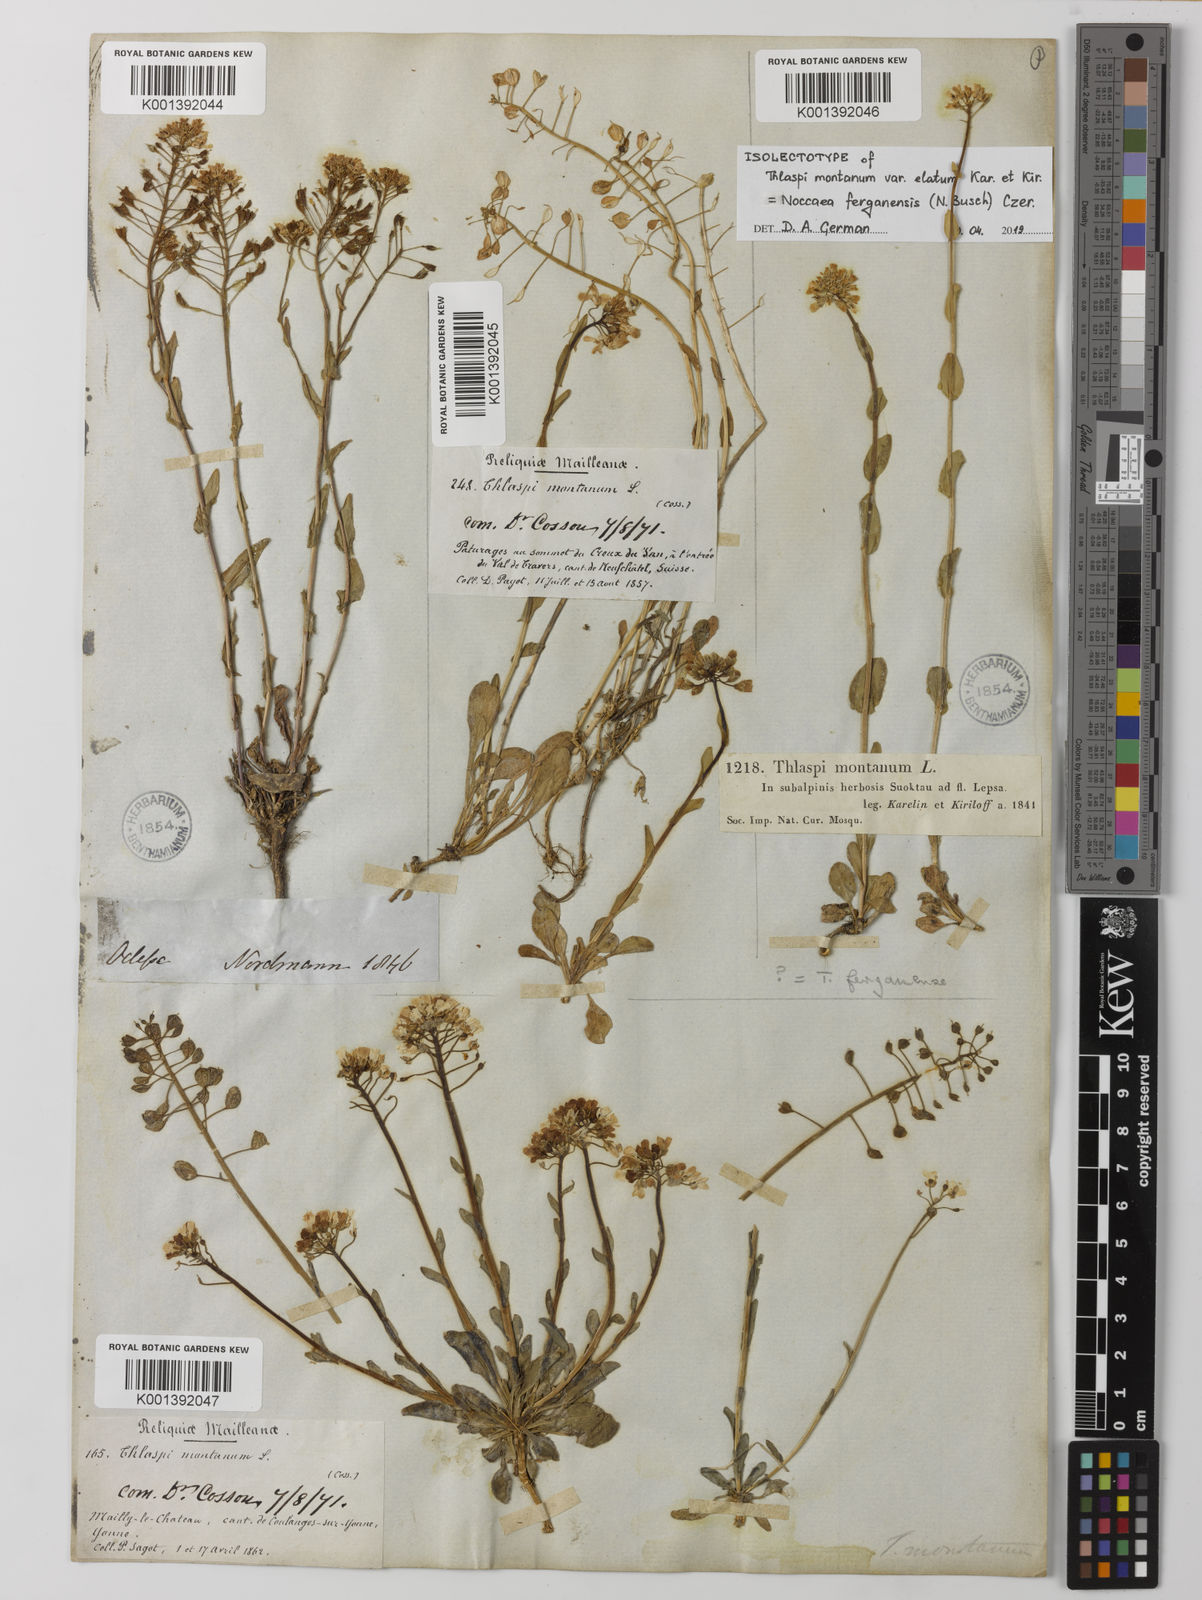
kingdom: Plantae
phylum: Tracheophyta
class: Magnoliopsida
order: Brassicales
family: Brassicaceae
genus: Noccaea
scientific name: Noccaea montana
